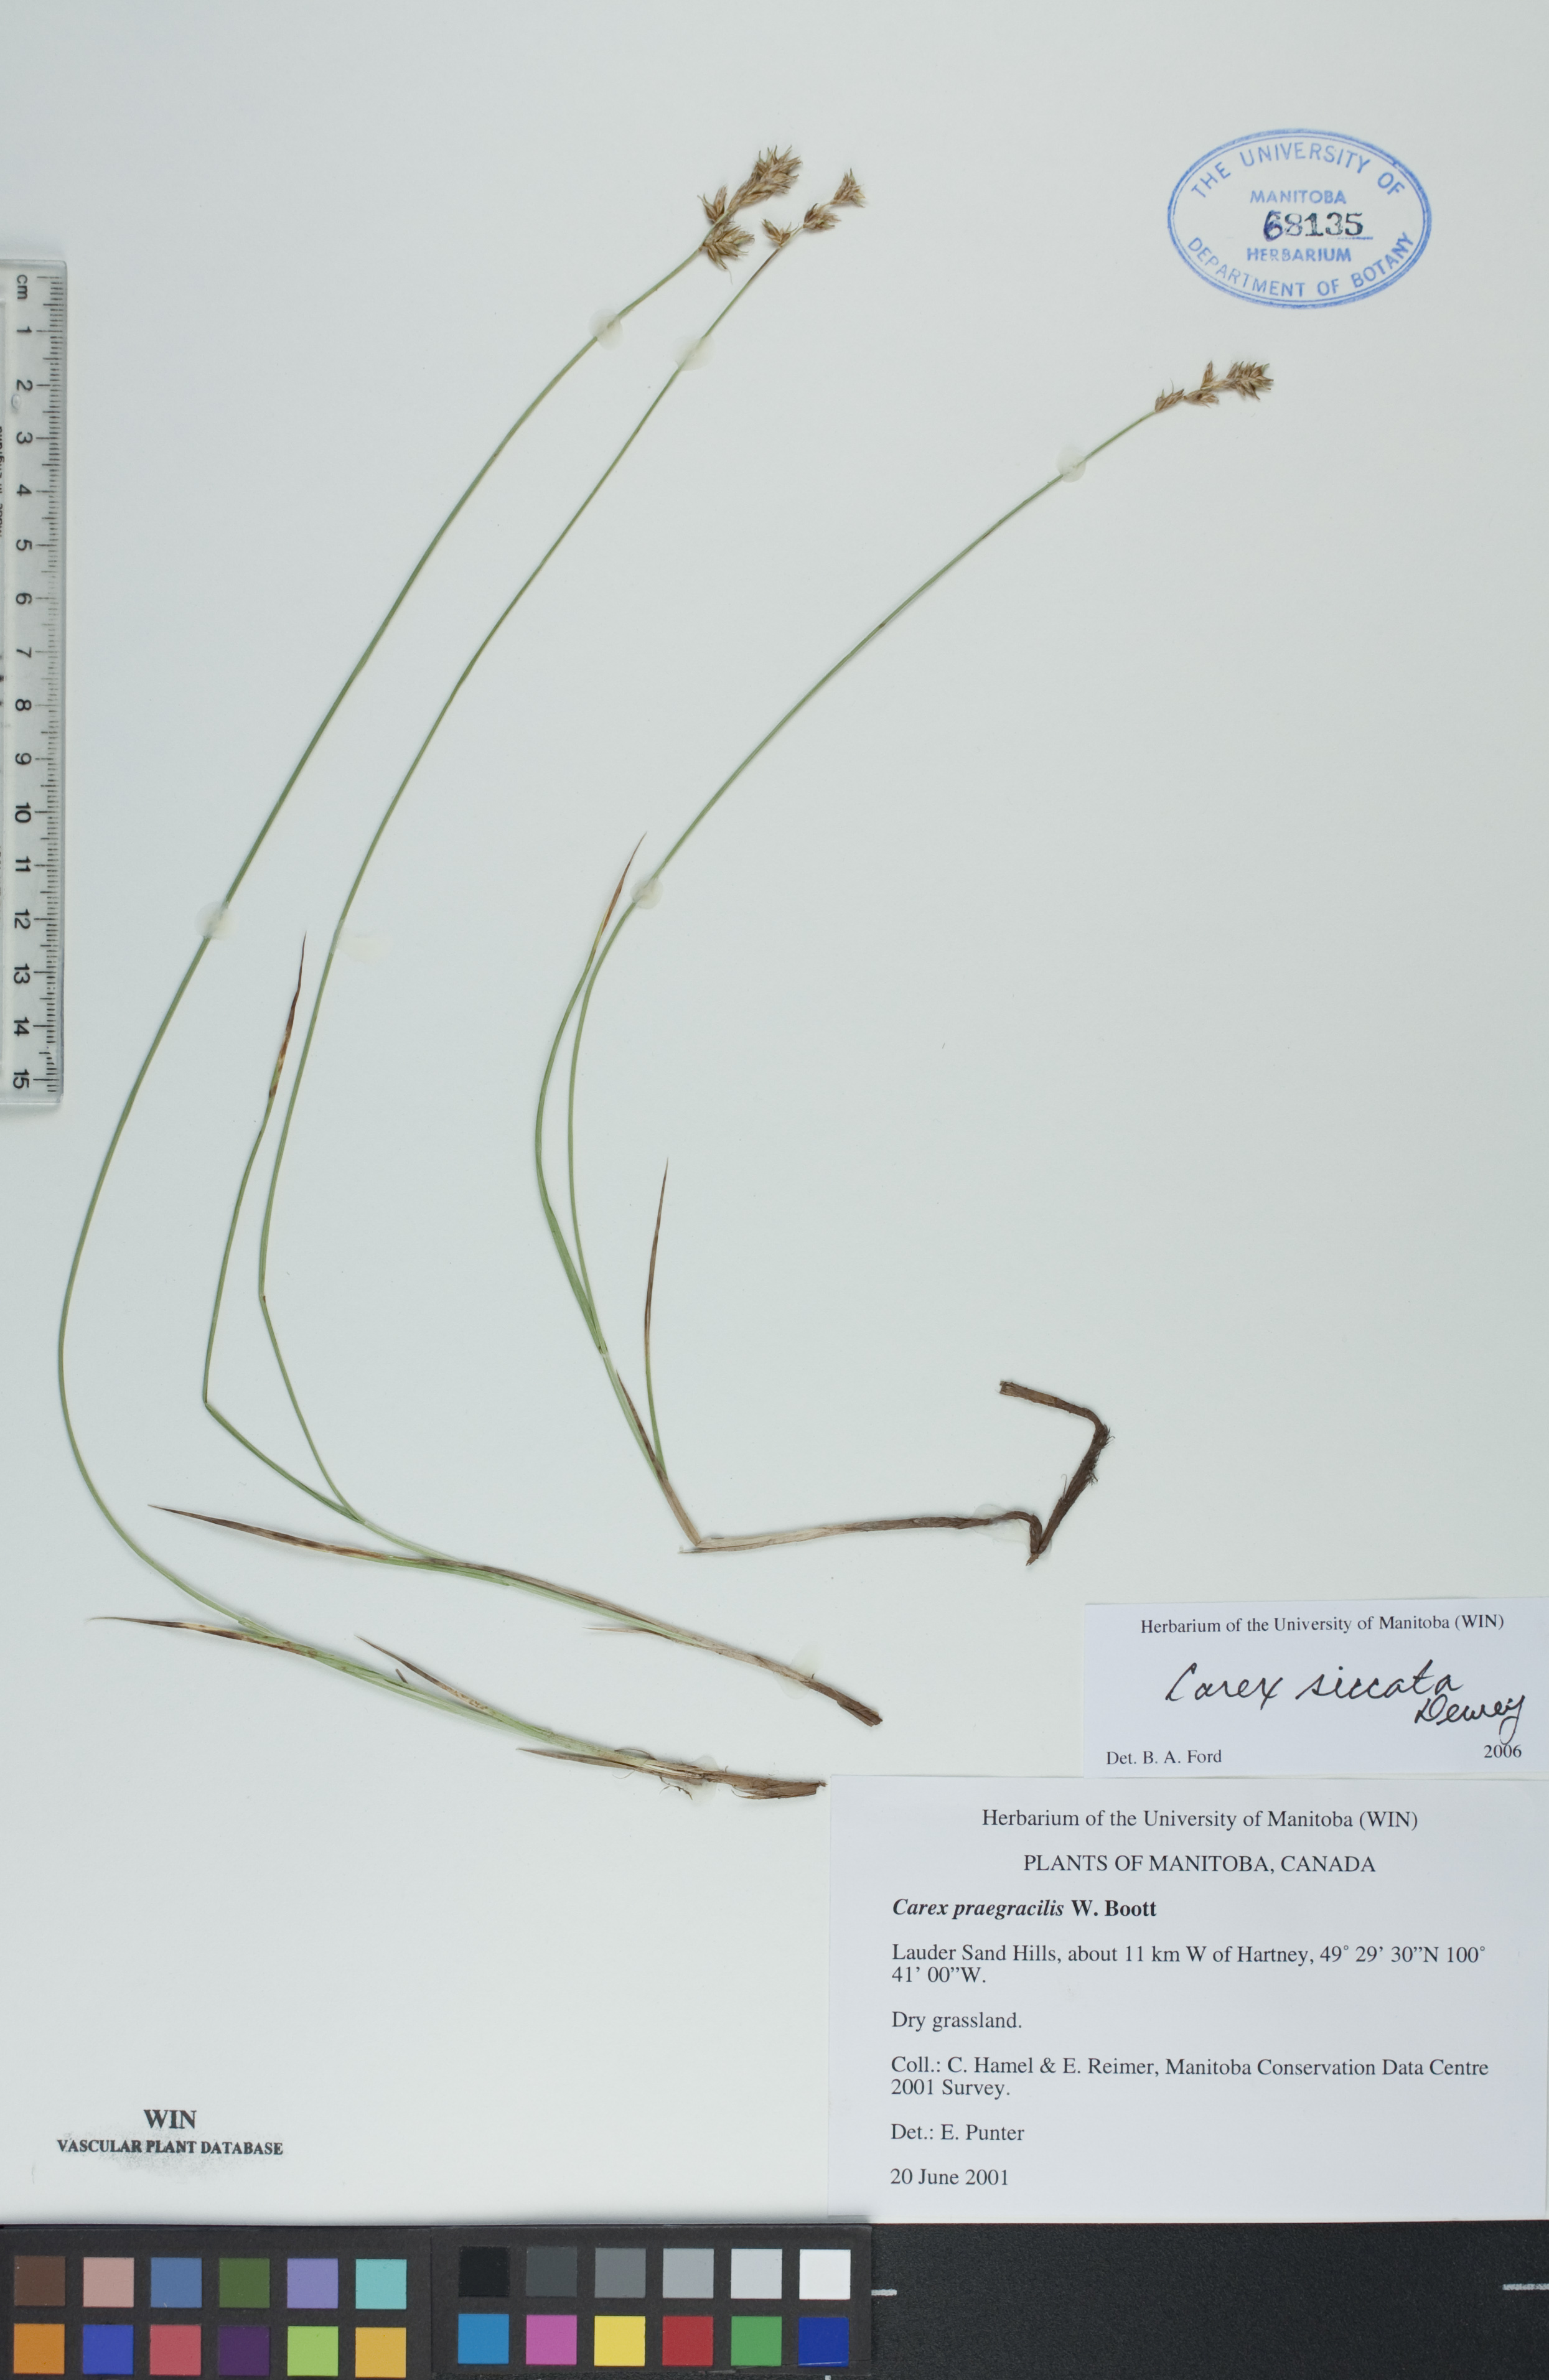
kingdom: Plantae
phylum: Tracheophyta
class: Liliopsida
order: Poales
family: Cyperaceae
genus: Carex
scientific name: Carex siccata
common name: Dry sedge
